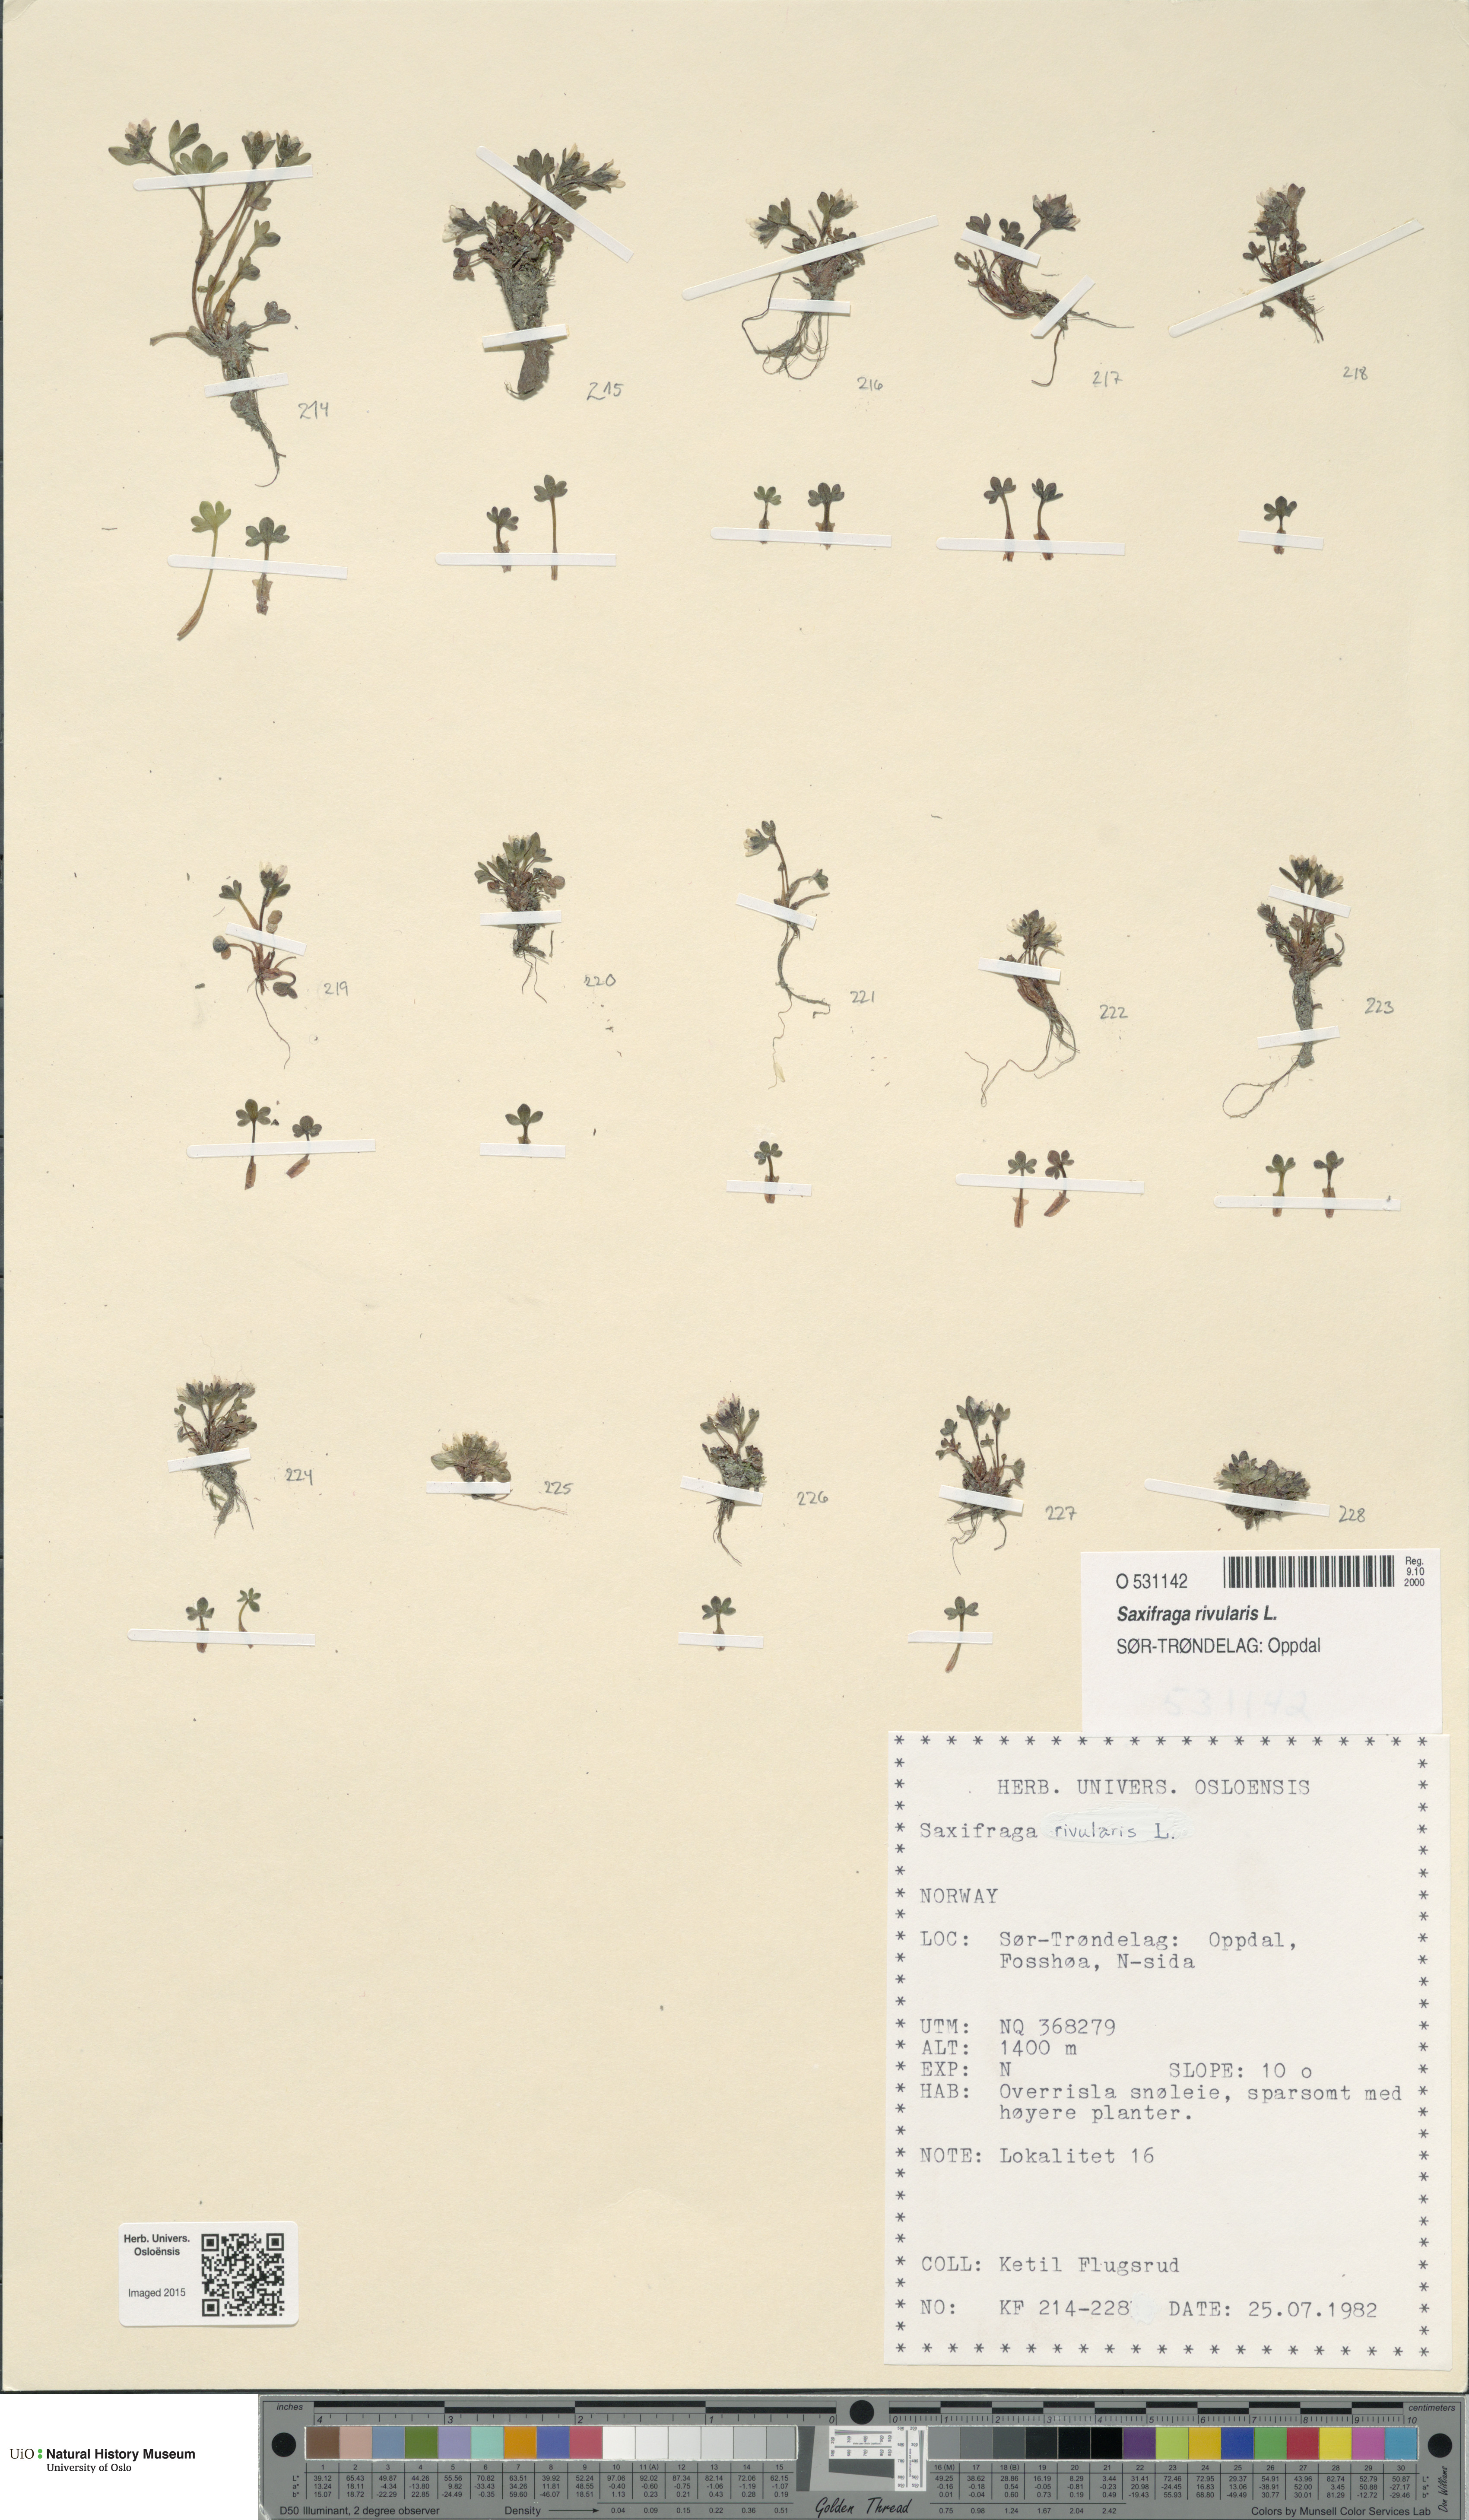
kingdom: Plantae
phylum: Tracheophyta
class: Magnoliopsida
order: Saxifragales
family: Saxifragaceae
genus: Saxifraga
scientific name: Saxifraga rivularis
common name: Highland saxifrage
